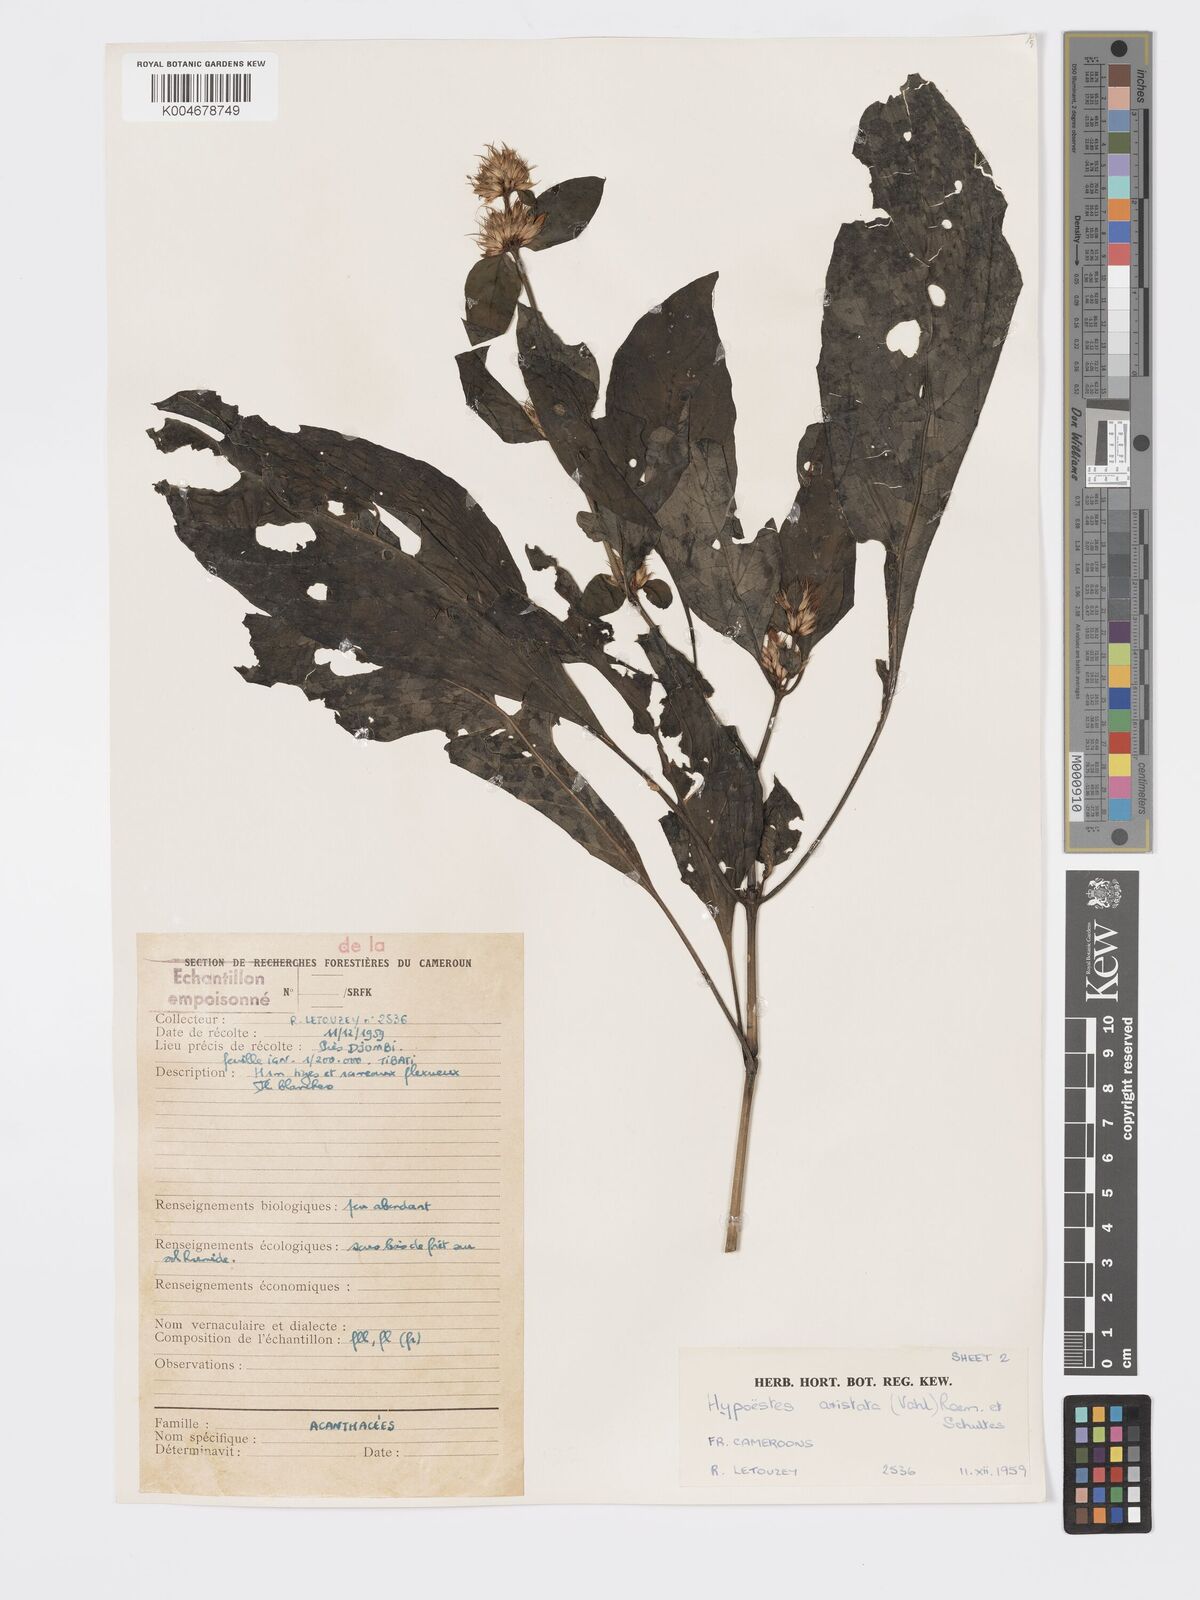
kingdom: Plantae
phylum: Tracheophyta
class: Magnoliopsida
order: Lamiales
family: Acanthaceae
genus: Hypoestes
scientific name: Hypoestes aristata
